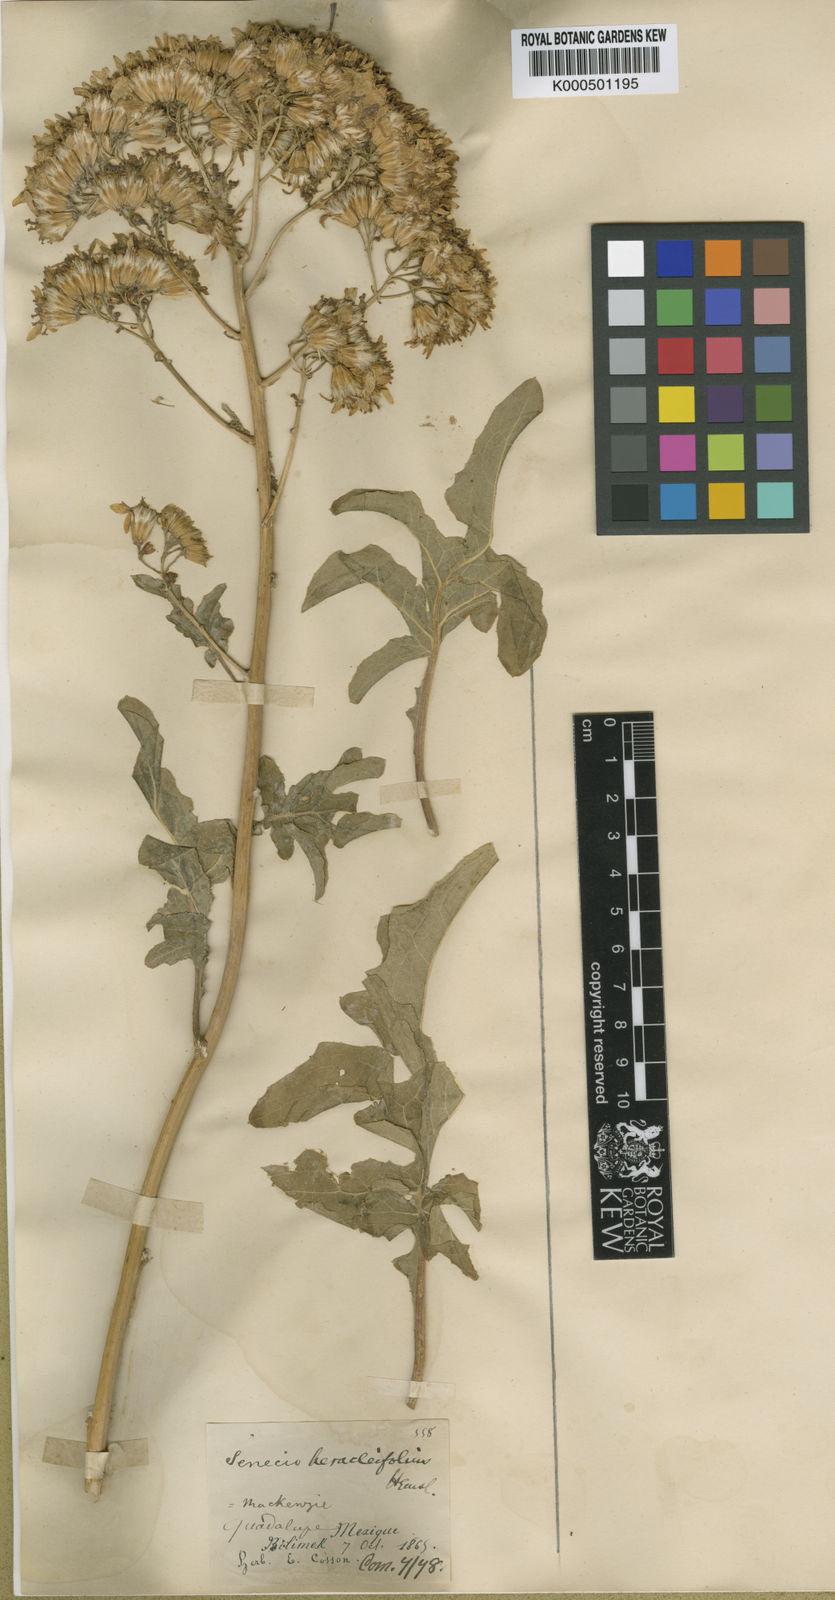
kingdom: Plantae
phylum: Tracheophyta
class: Magnoliopsida
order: Asterales
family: Asteraceae
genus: Roldana
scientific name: Roldana heracleifolia
